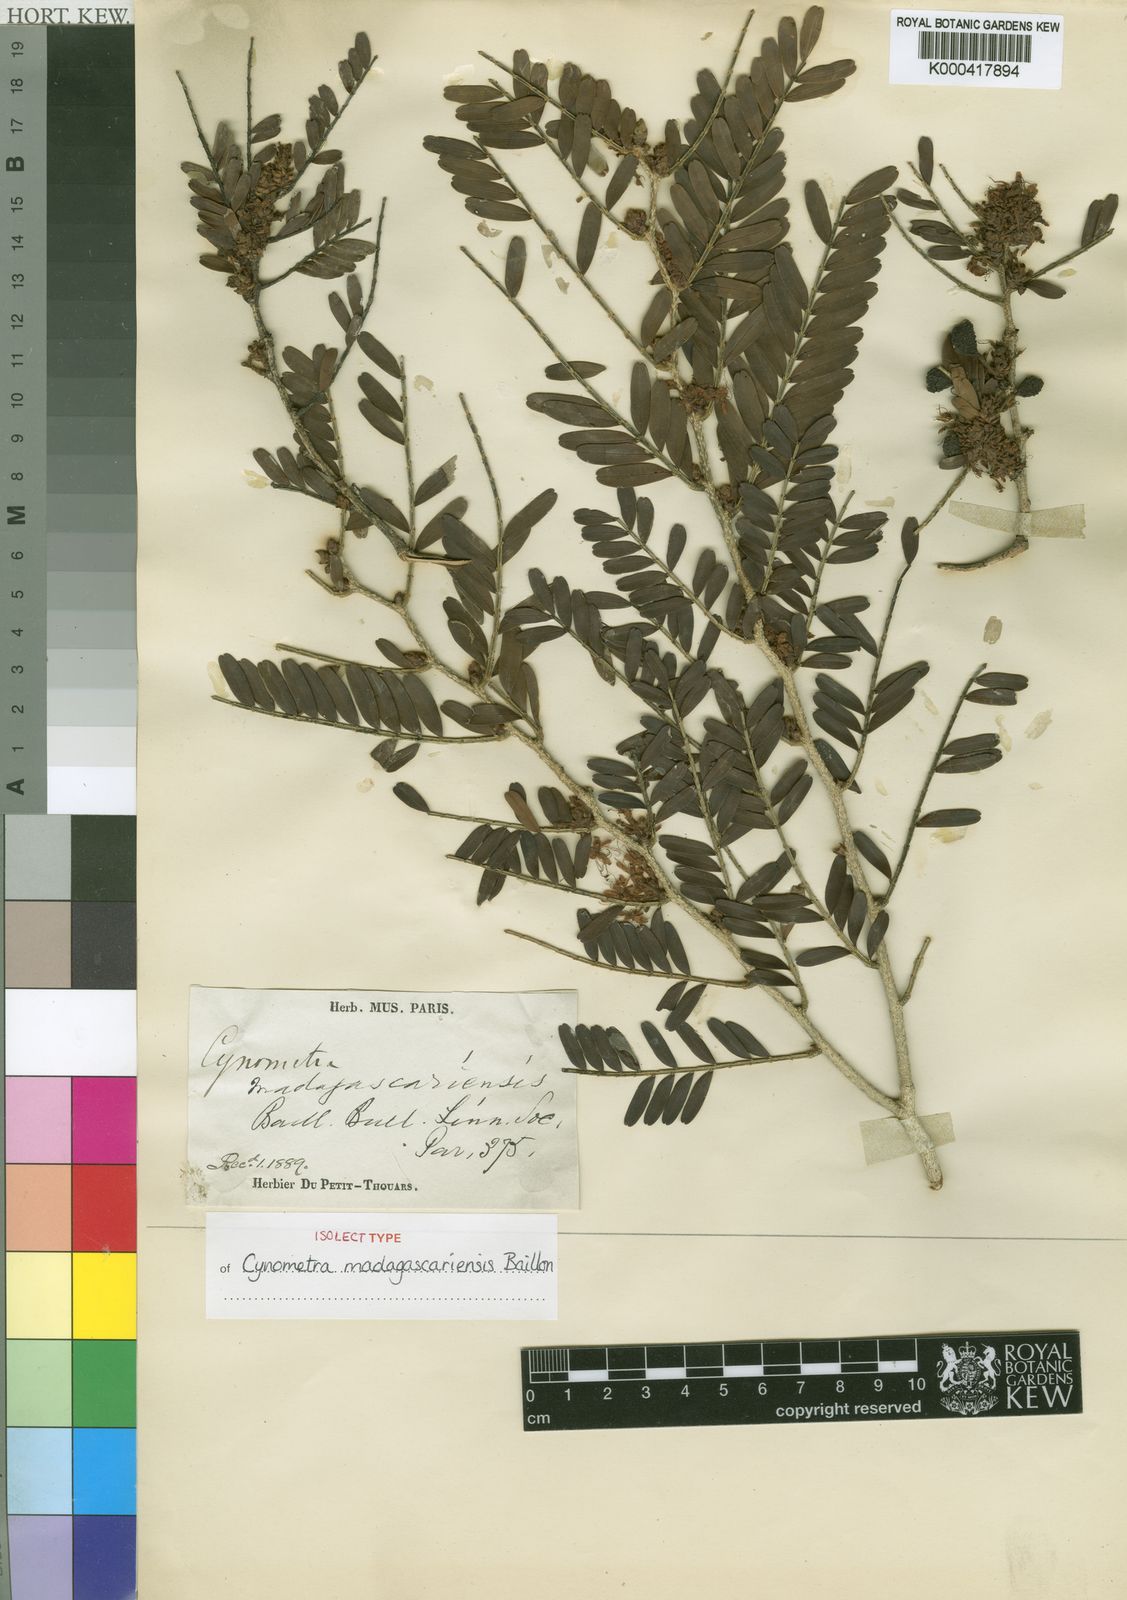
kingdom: Plantae
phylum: Tracheophyta
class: Magnoliopsida
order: Fabales
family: Fabaceae
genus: Cynometra
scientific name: Cynometra
